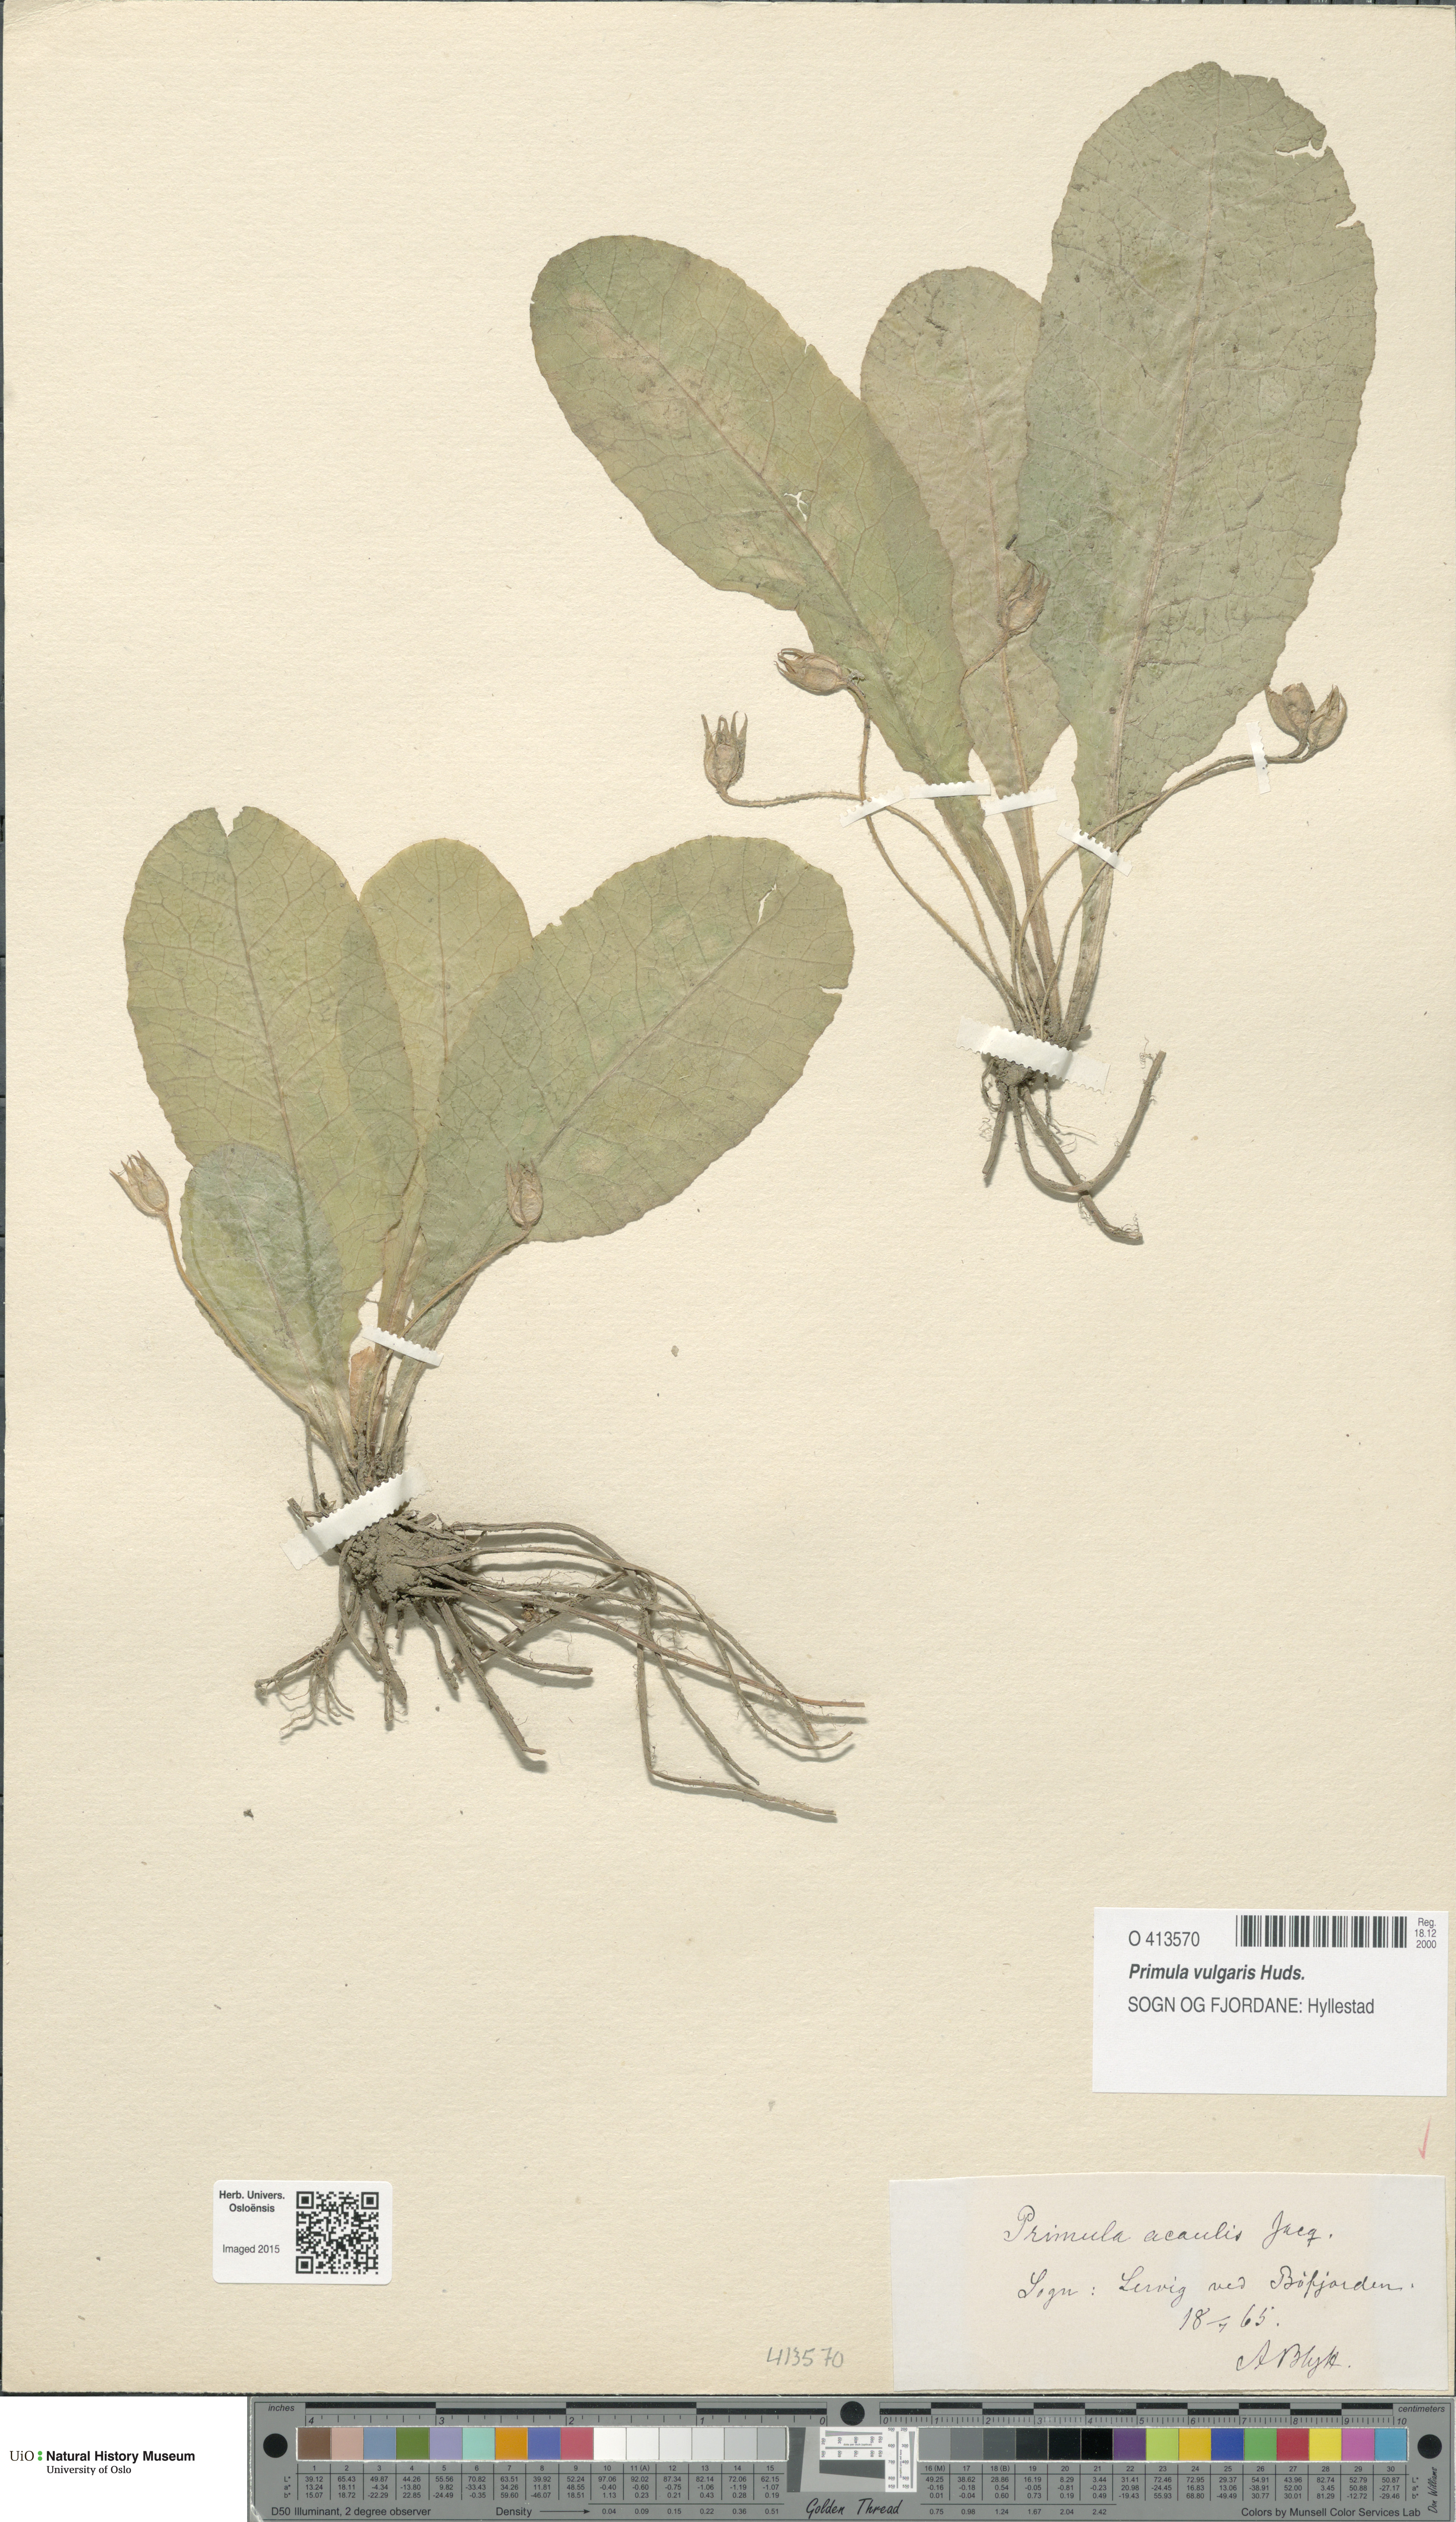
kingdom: Plantae
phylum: Tracheophyta
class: Magnoliopsida
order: Ericales
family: Primulaceae
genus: Primula
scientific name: Primula vulgaris
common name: Primrose
